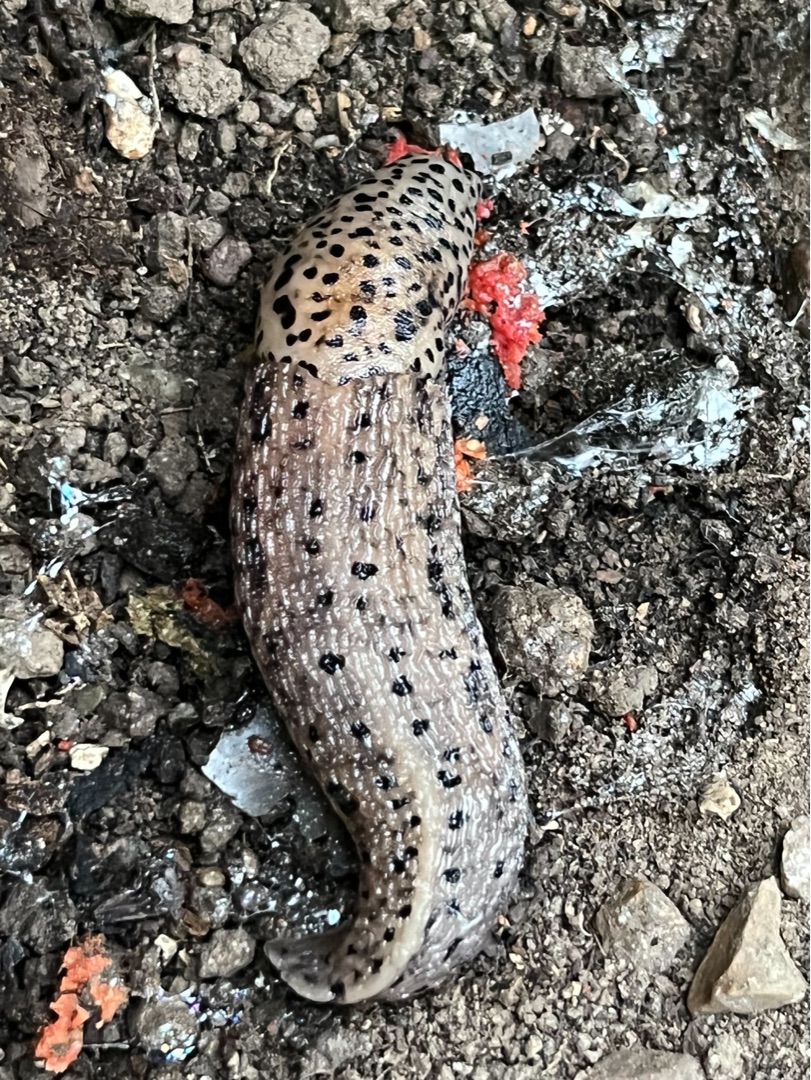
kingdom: Animalia
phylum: Mollusca
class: Gastropoda
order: Stylommatophora
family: Limacidae
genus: Limax
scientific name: Limax maximus
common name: Pantersnegl
